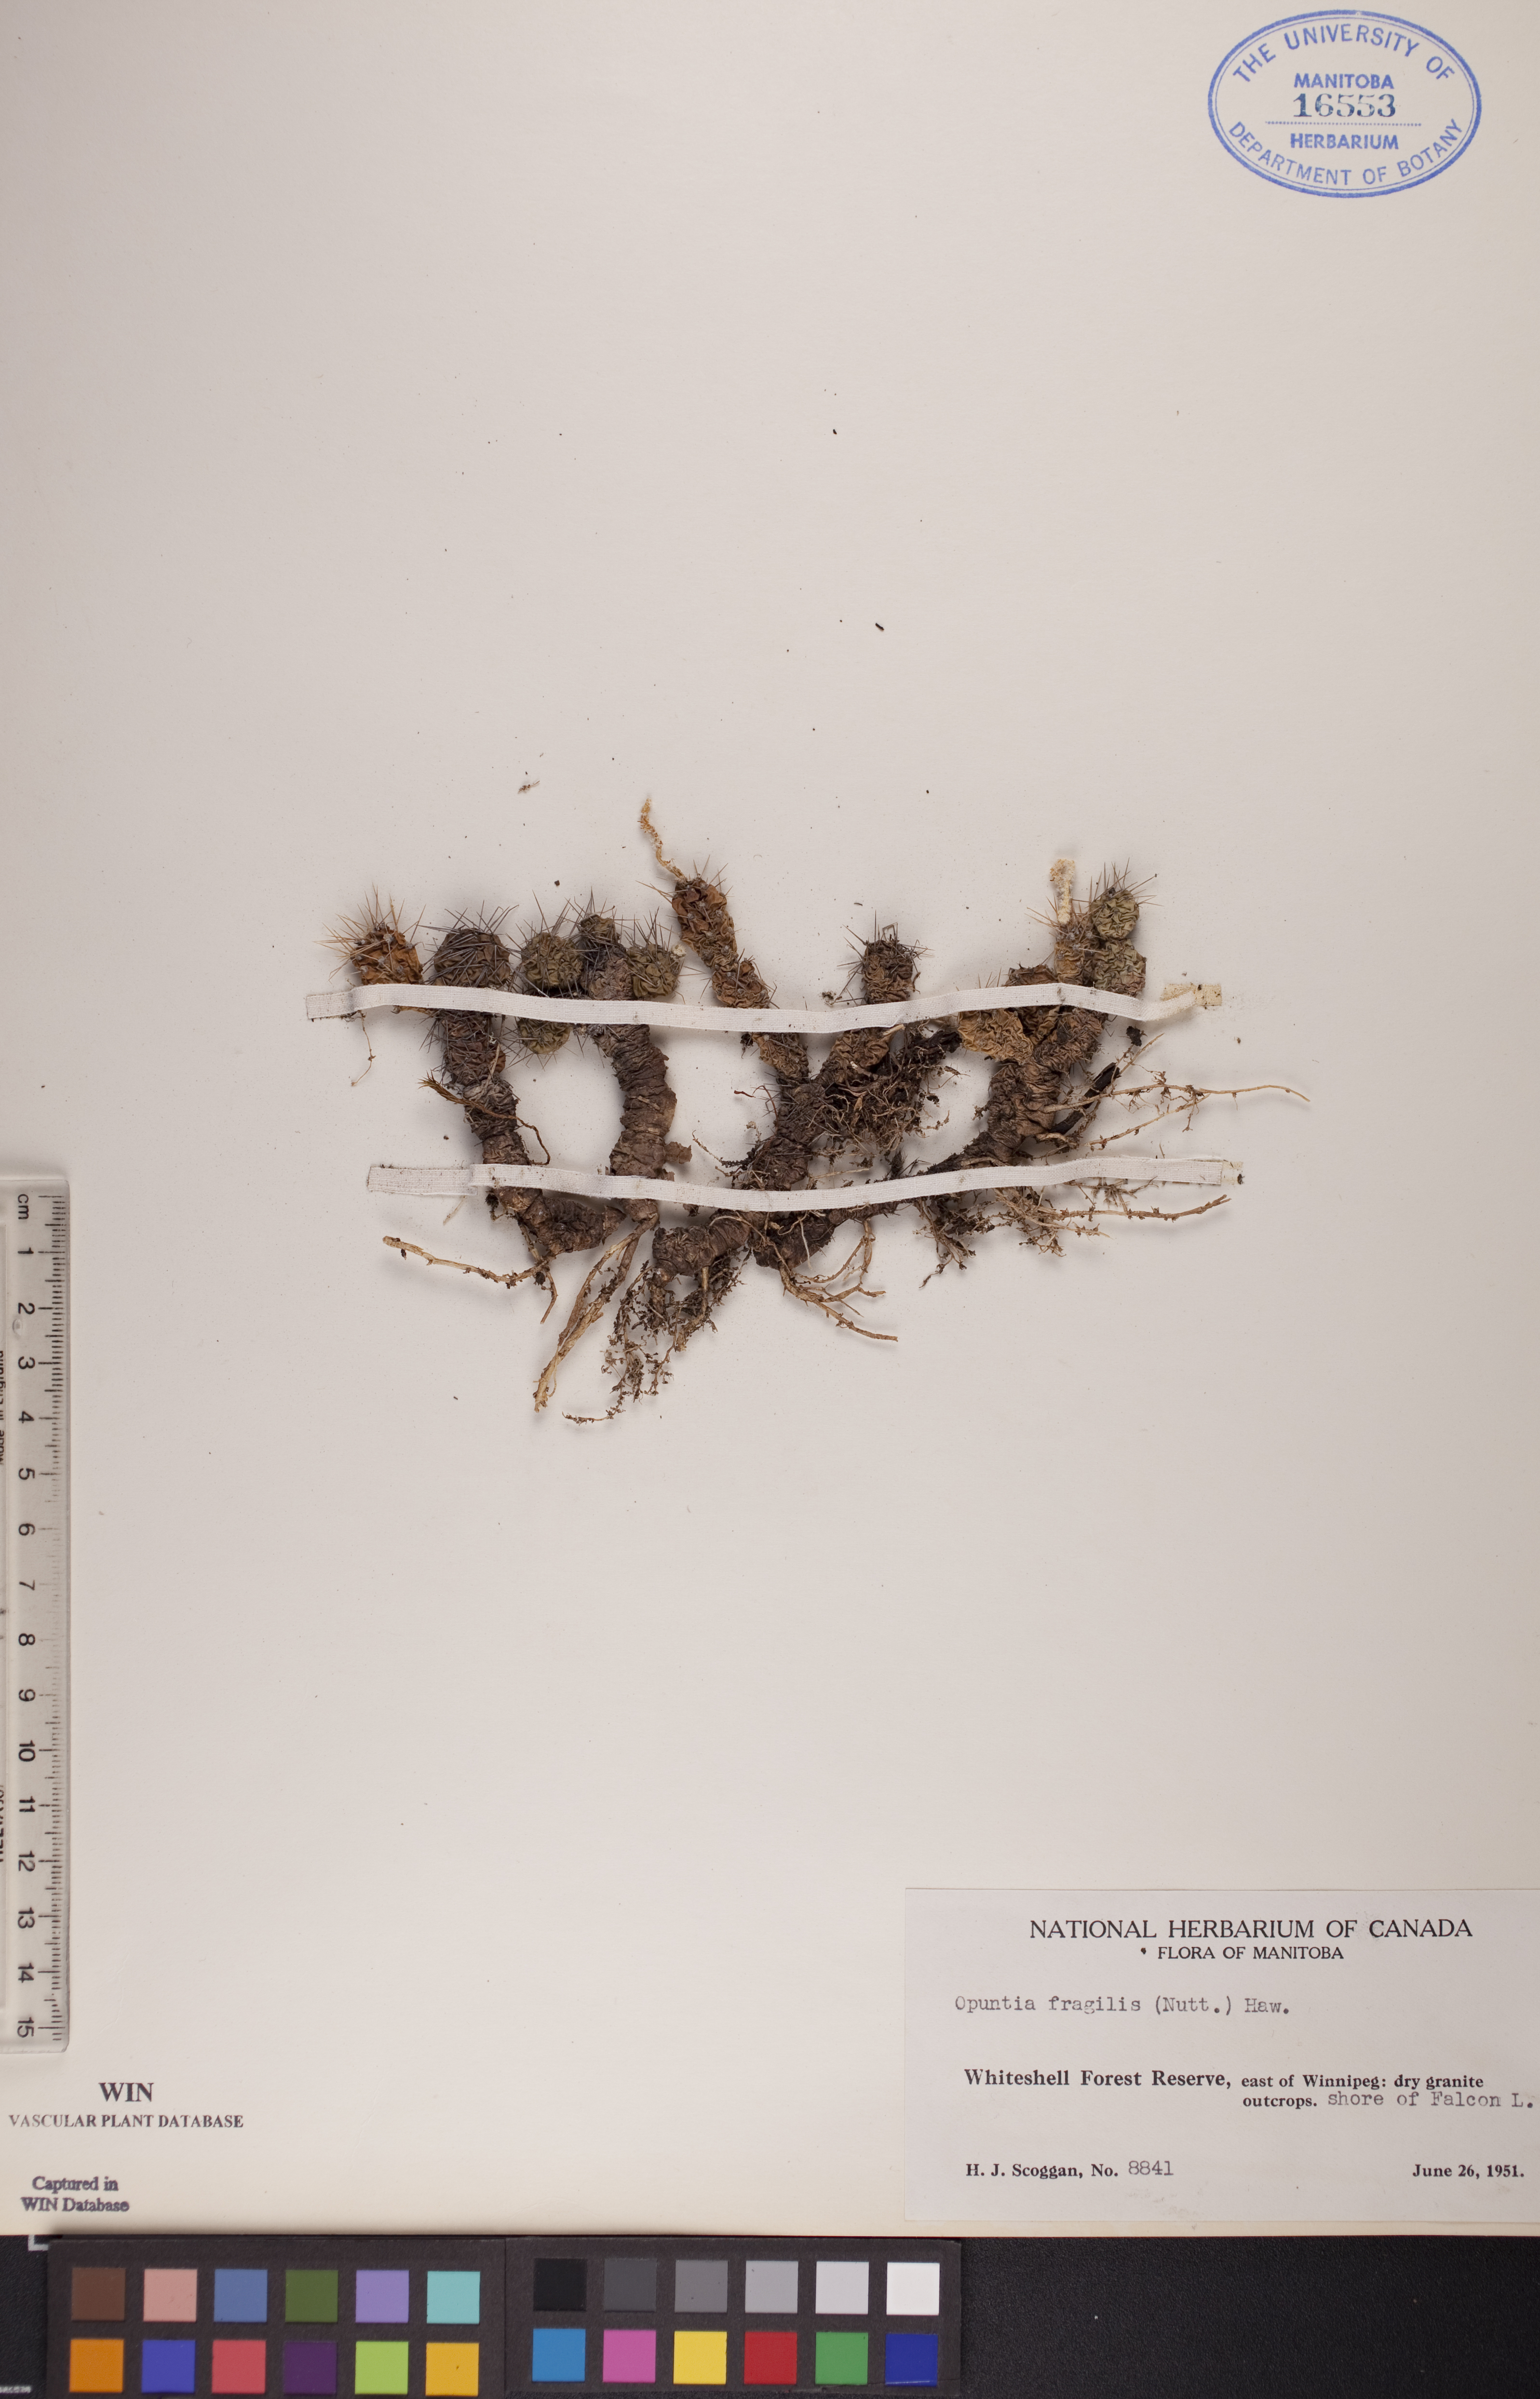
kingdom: Plantae
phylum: Tracheophyta
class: Magnoliopsida
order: Caryophyllales
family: Cactaceae
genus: Opuntia
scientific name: Opuntia fragilis
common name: Brittle cactus
